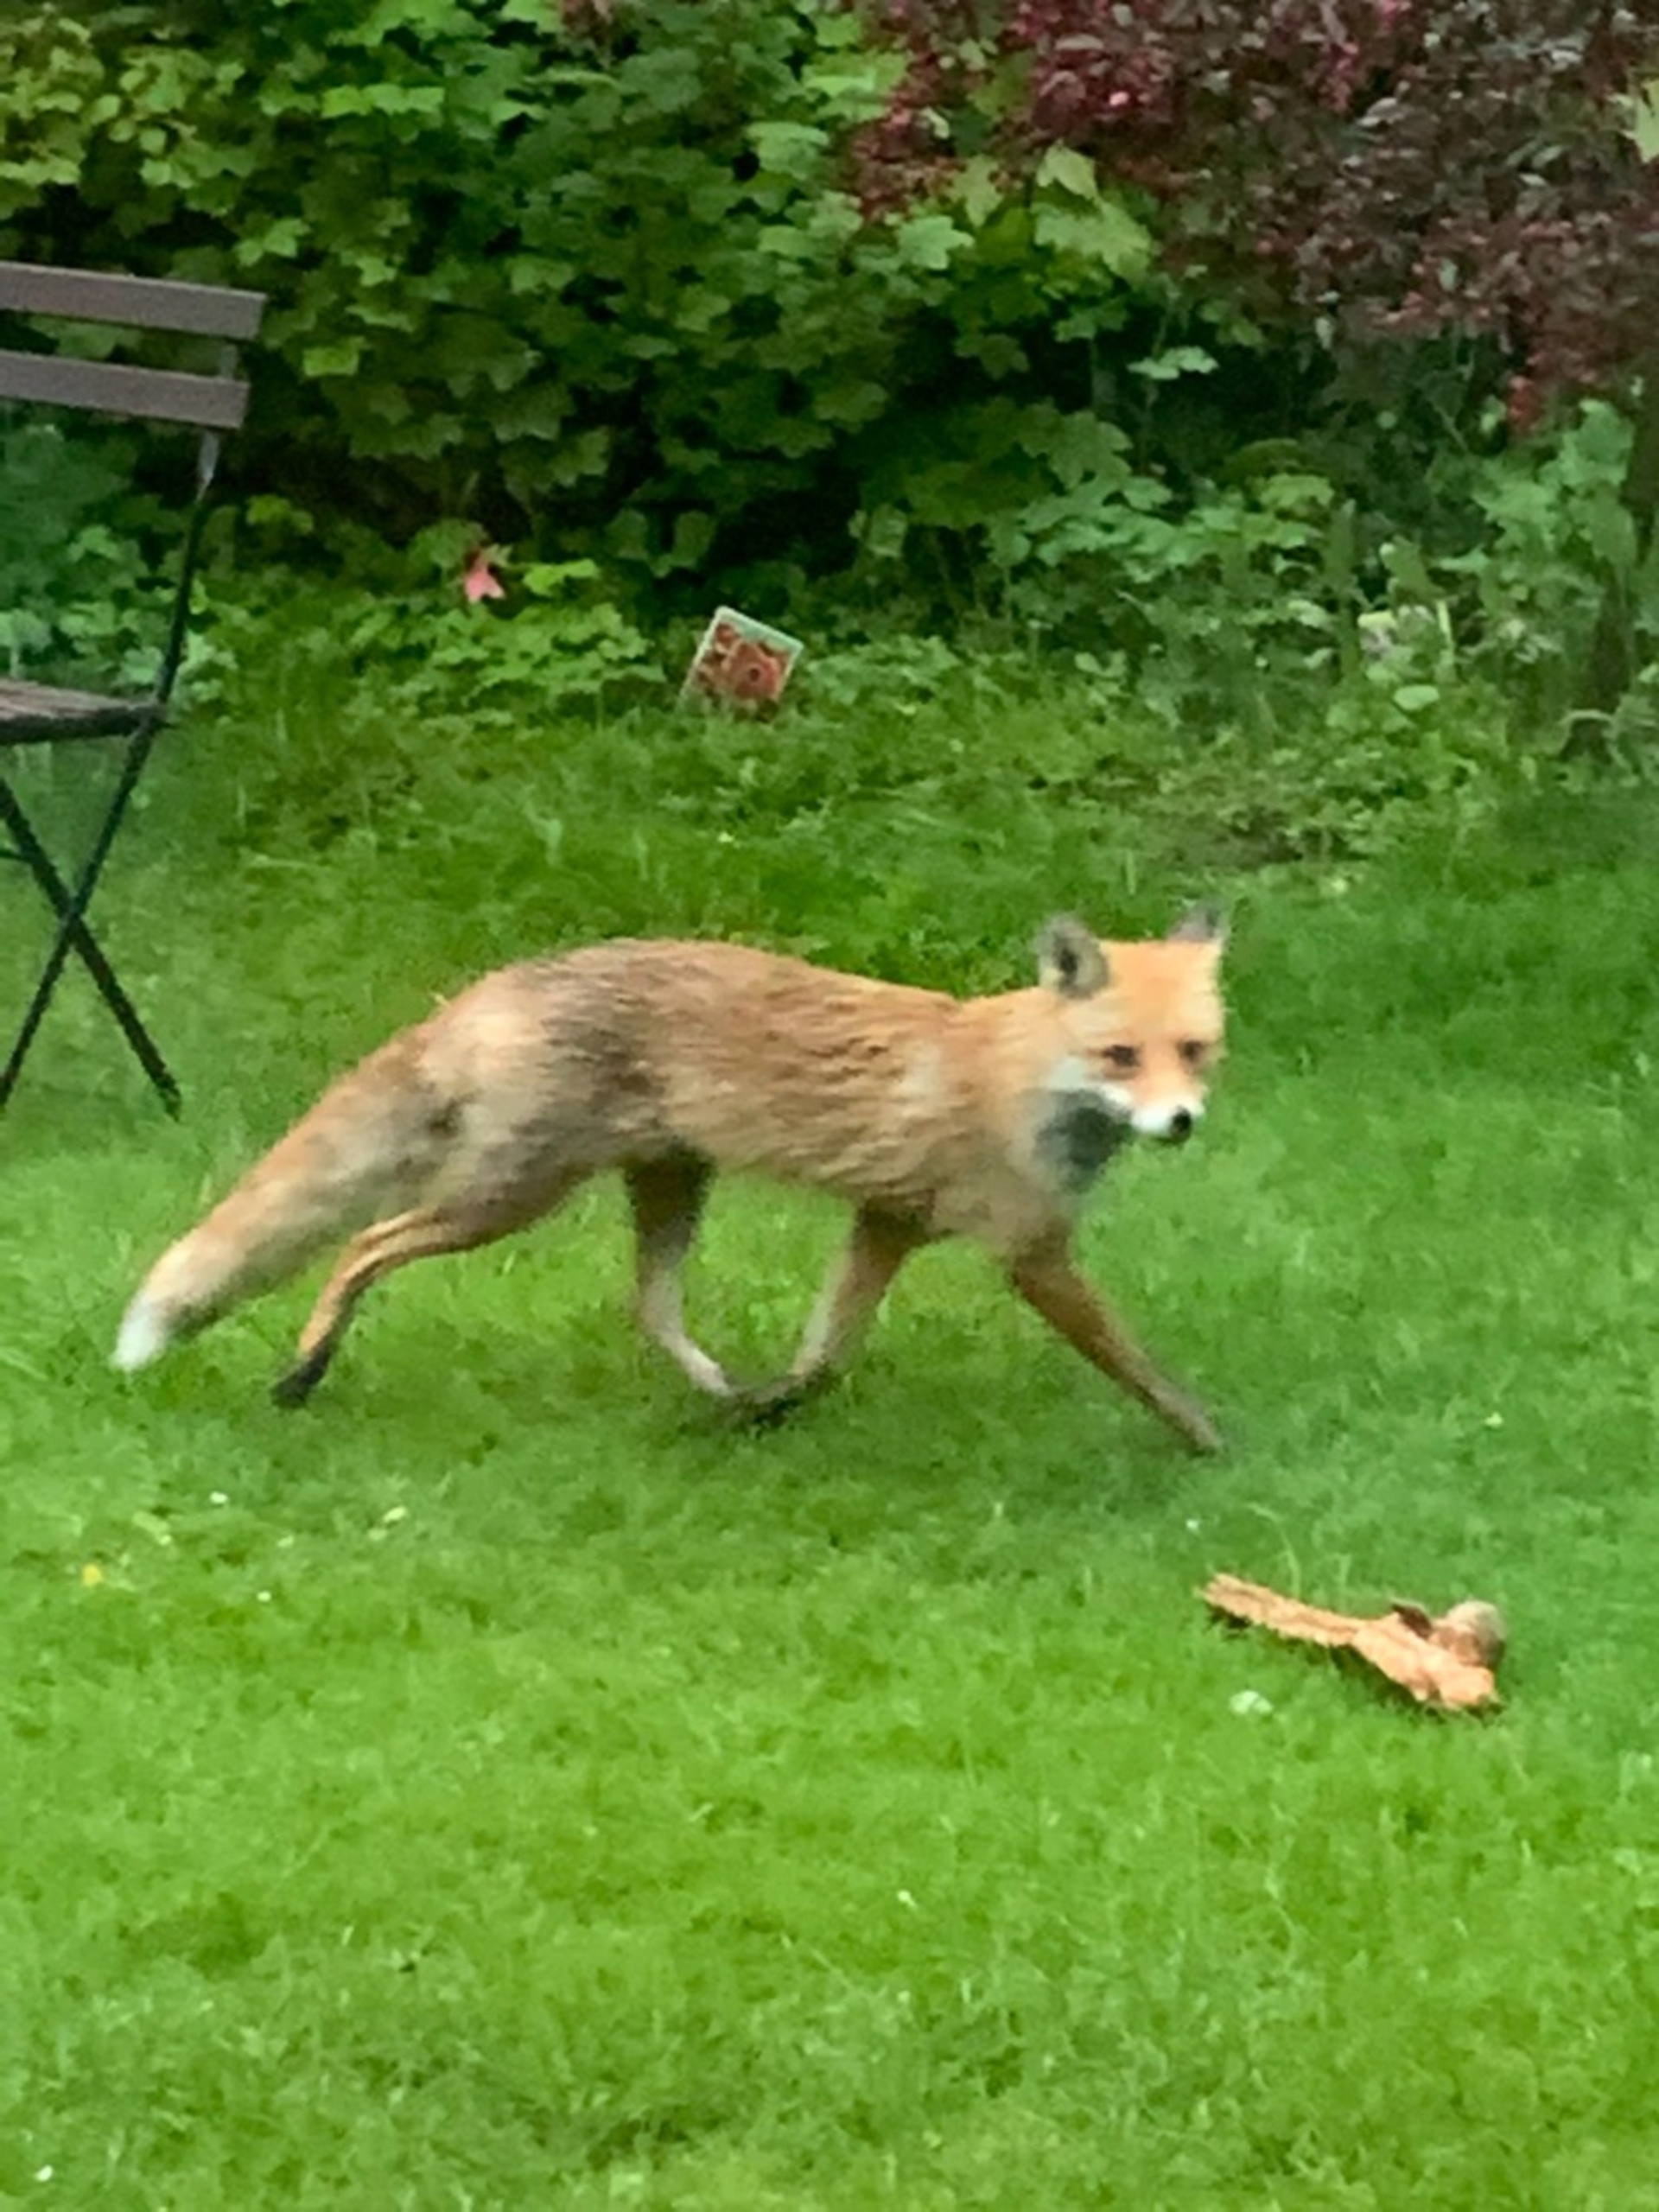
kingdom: Animalia
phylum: Chordata
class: Mammalia
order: Carnivora
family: Canidae
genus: Vulpes
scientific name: Vulpes vulpes
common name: Ræv
